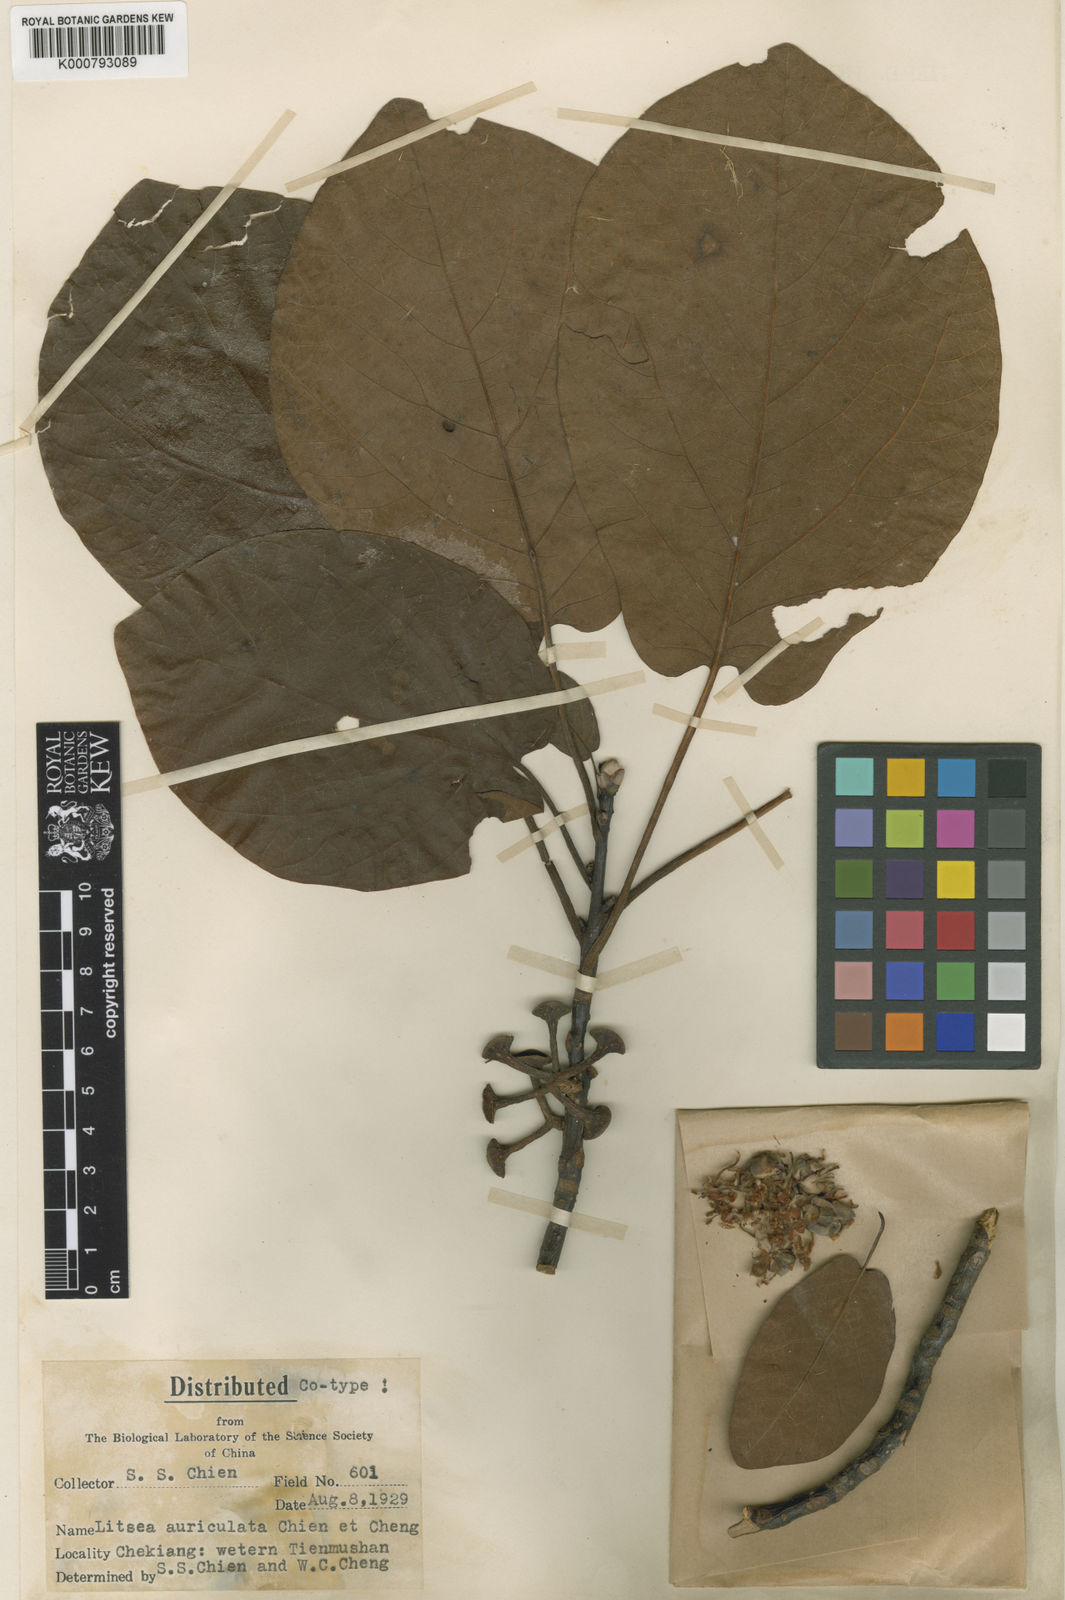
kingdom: Plantae
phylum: Tracheophyta
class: Magnoliopsida
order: Laurales
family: Lauraceae
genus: Litsea
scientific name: Litsea auriculata
